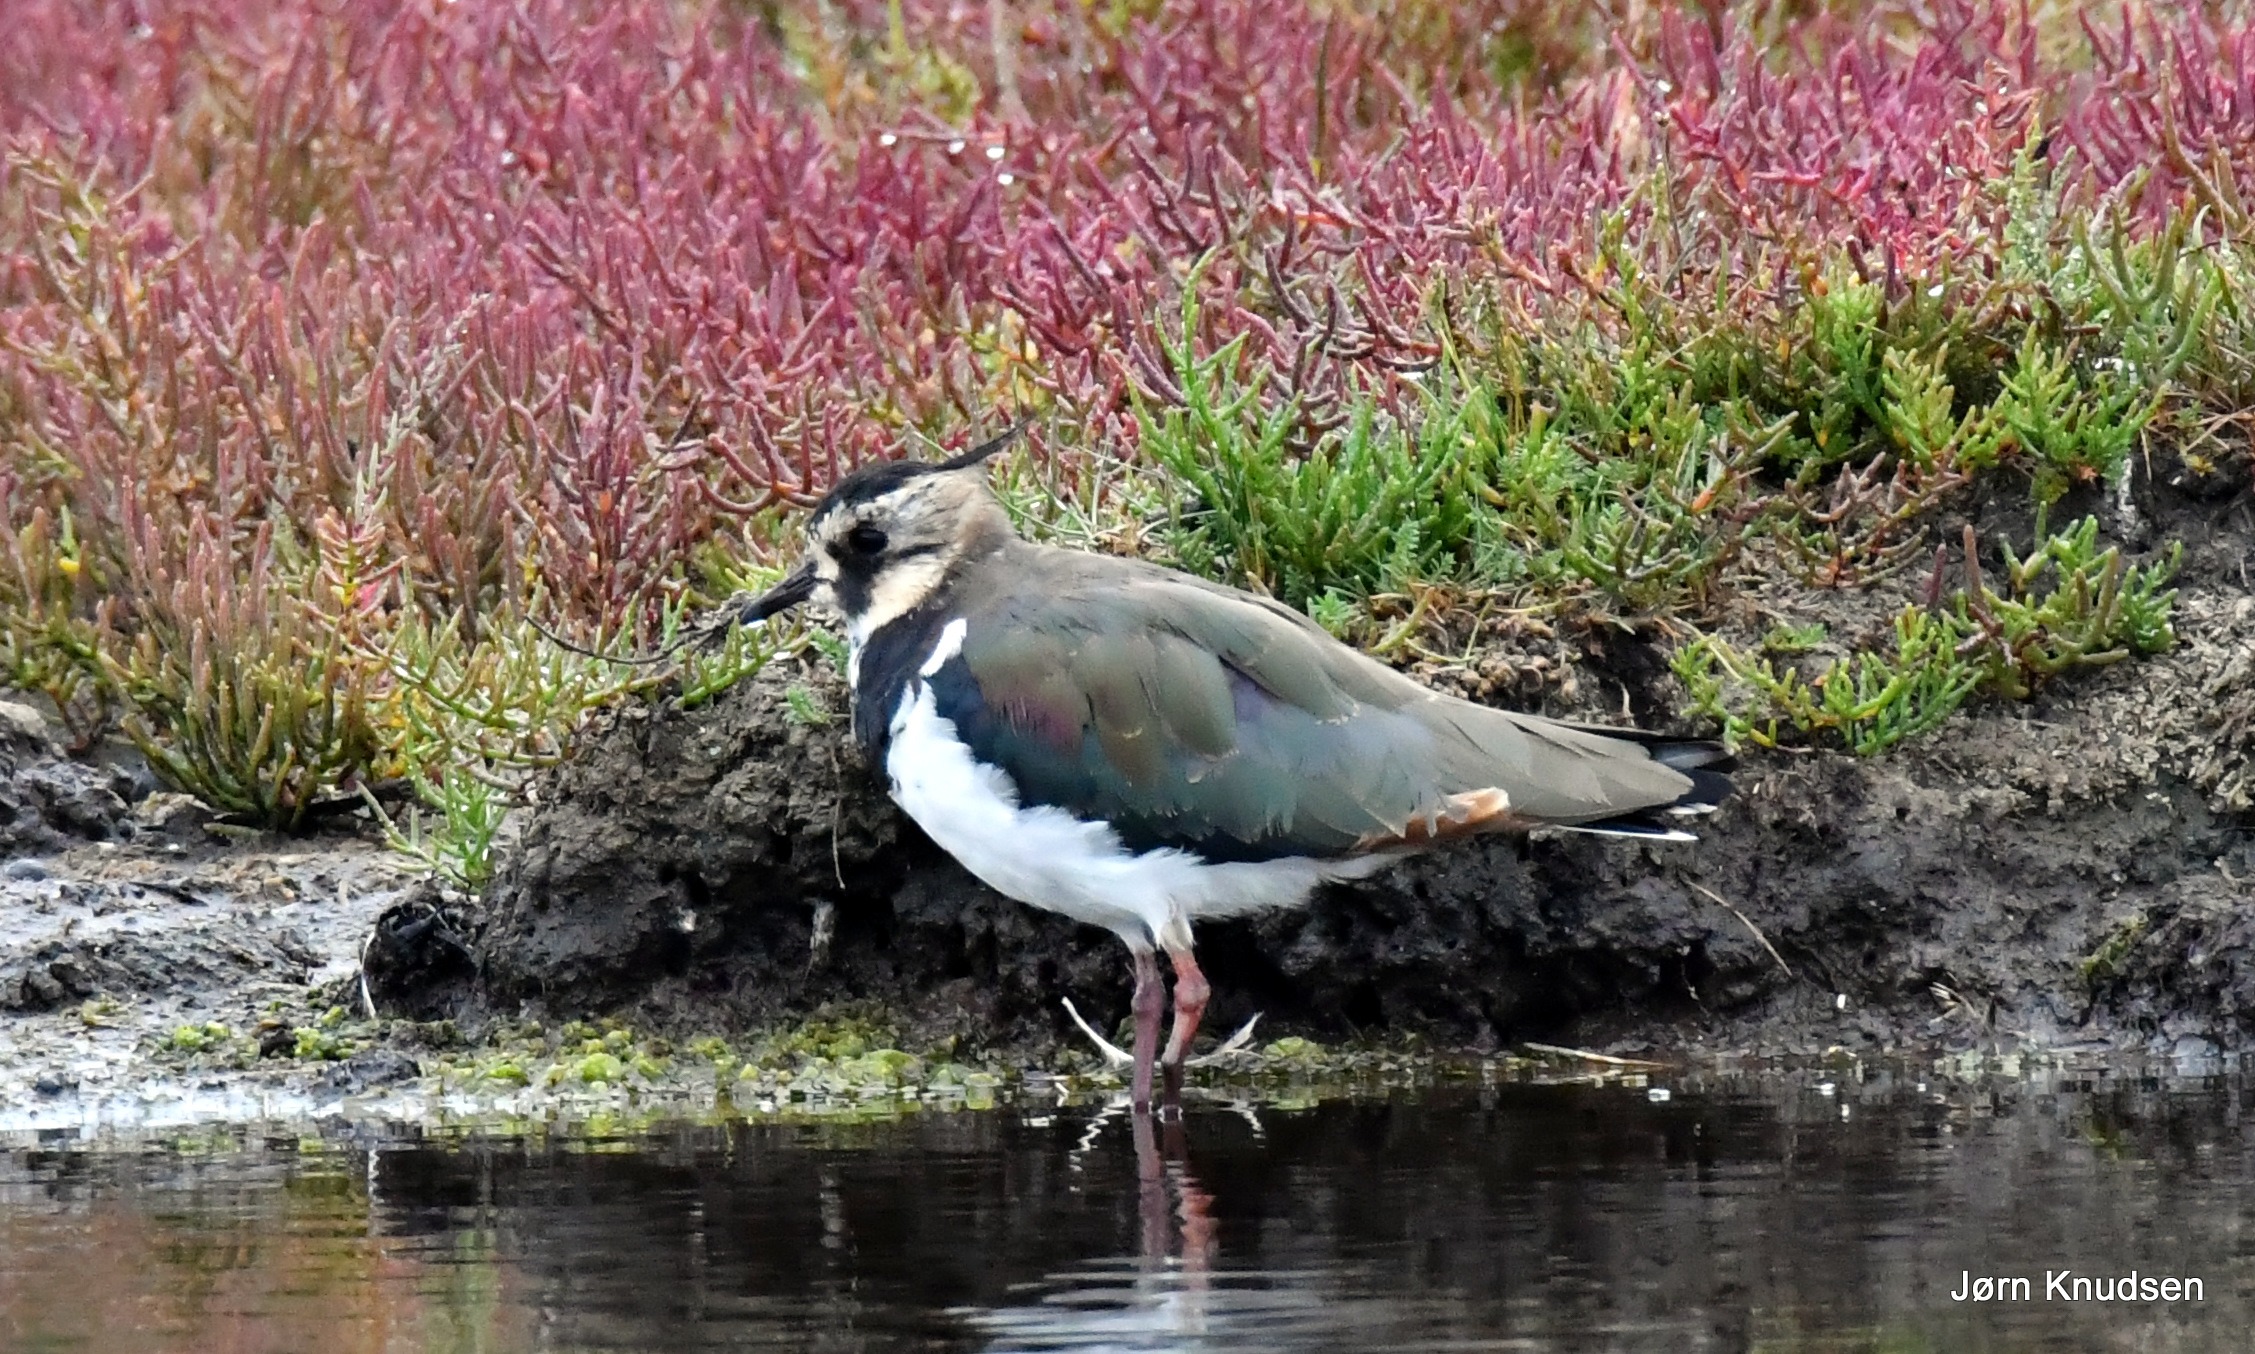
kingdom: Animalia
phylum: Chordata
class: Aves
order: Charadriiformes
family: Charadriidae
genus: Vanellus
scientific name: Vanellus vanellus
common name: Vibe
